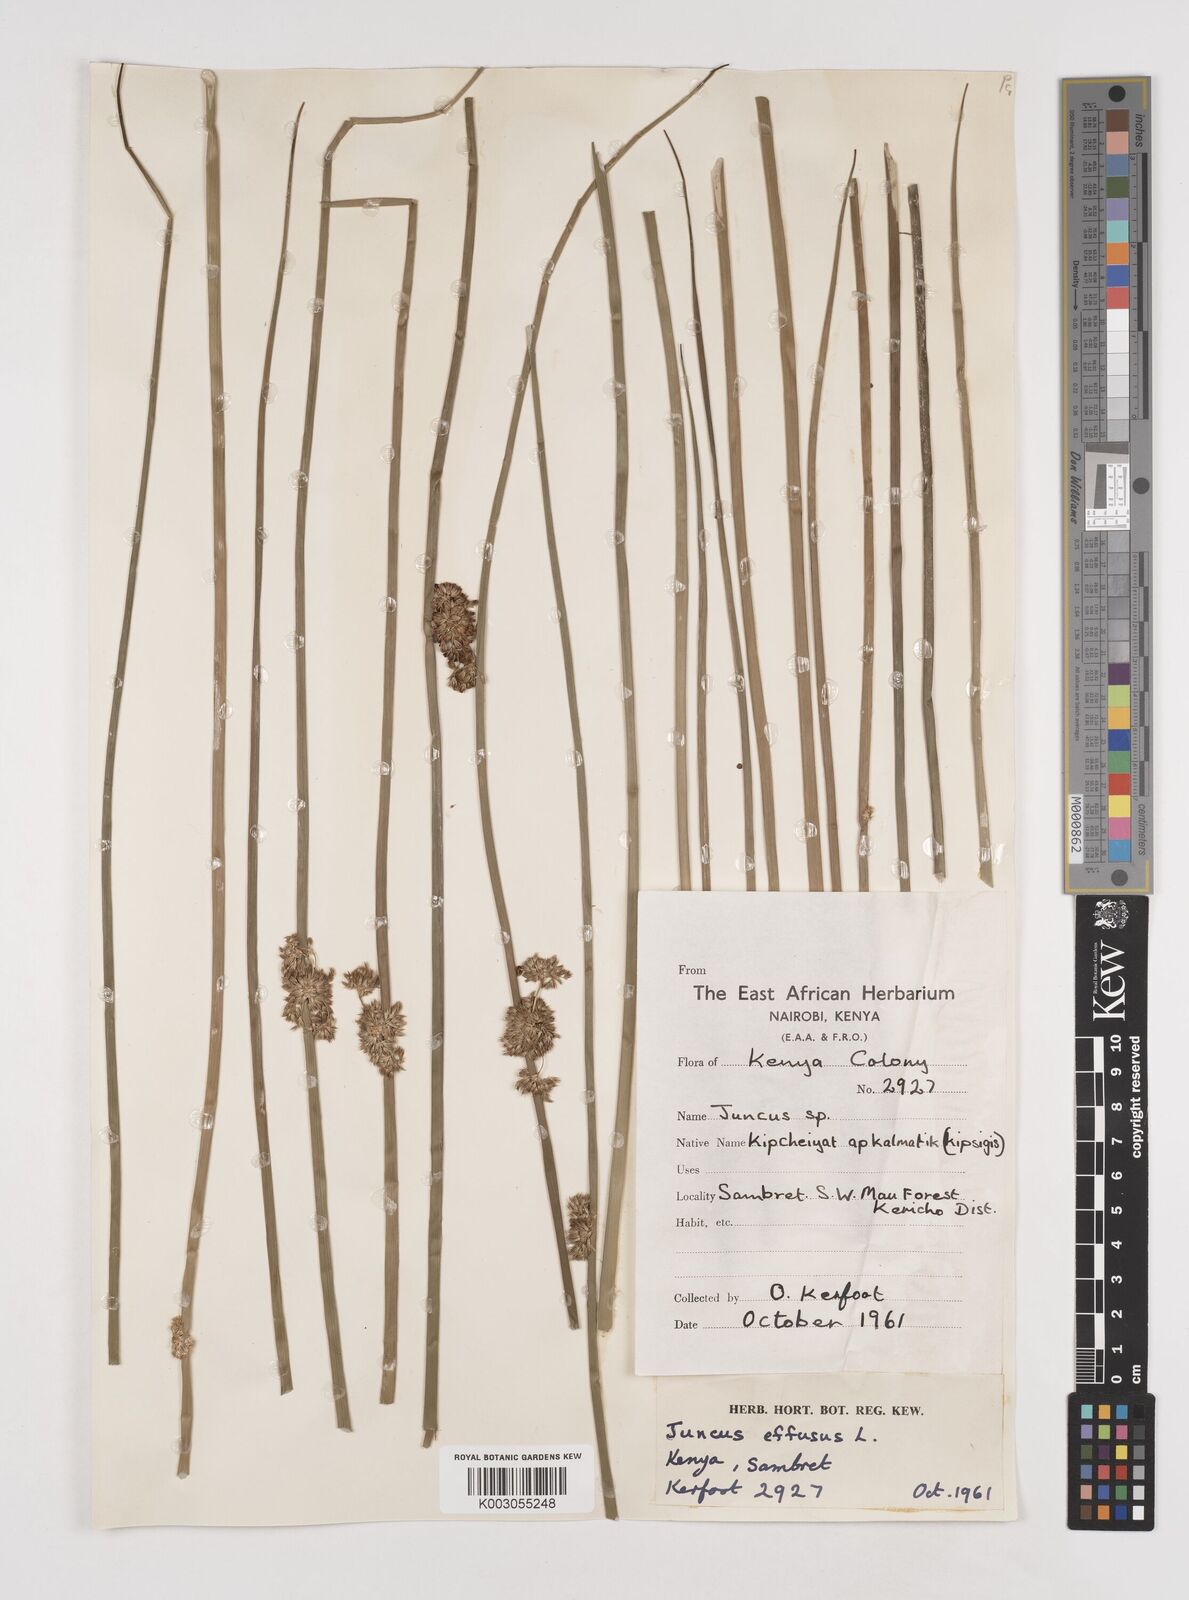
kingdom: Plantae
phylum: Tracheophyta
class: Liliopsida
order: Poales
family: Juncaceae
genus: Juncus
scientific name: Juncus effusus
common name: Soft rush
